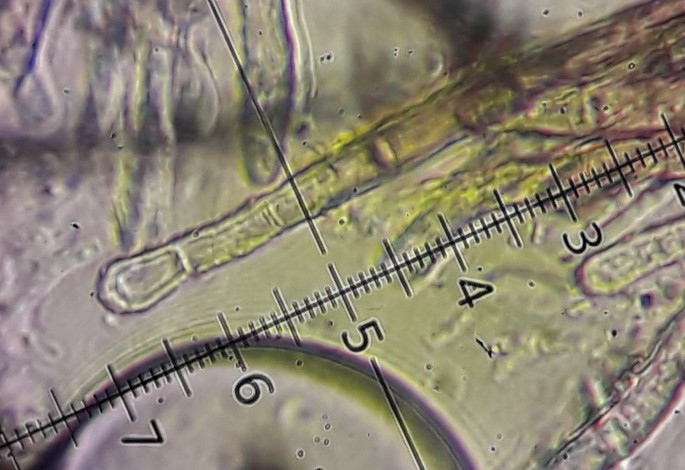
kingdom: Fungi
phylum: Ascomycota
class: Leotiomycetes
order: Helotiales
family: Hyaloscyphaceae
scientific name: Hyaloscyphaceae
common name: frynseskivefamilien
